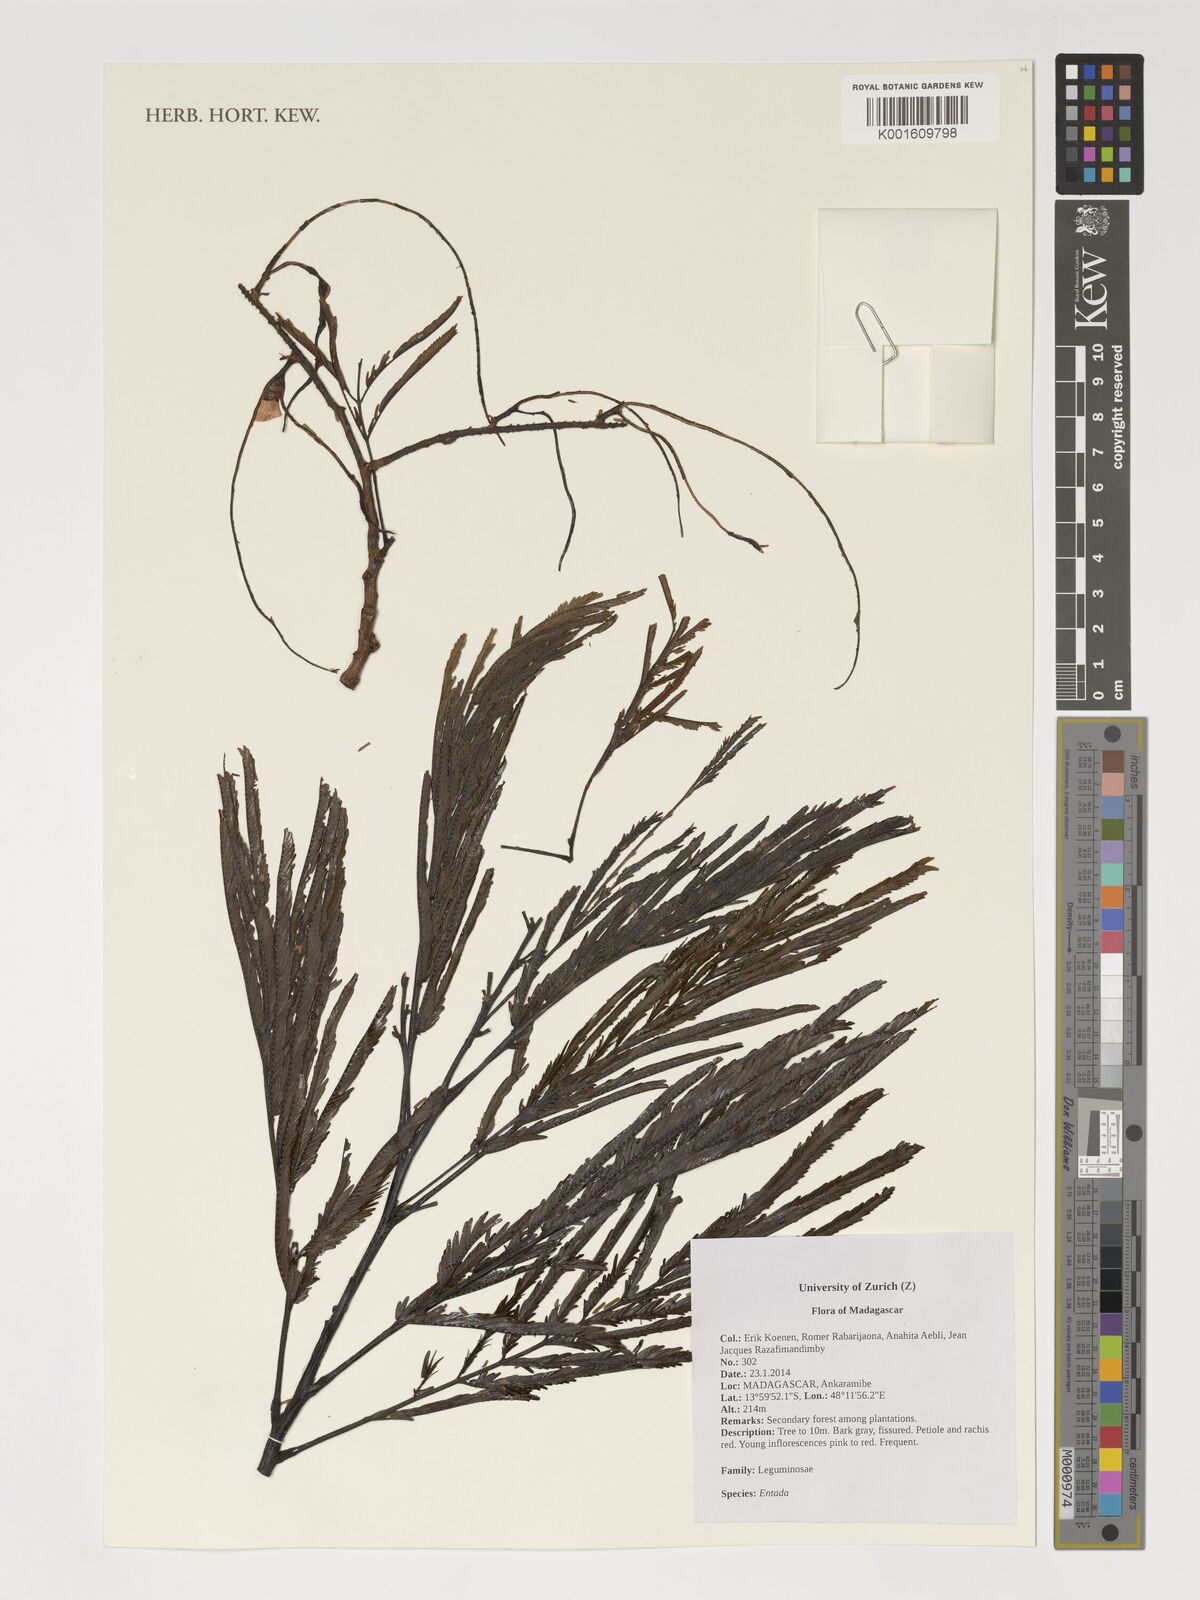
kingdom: Plantae
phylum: Tracheophyta
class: Magnoliopsida
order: Fabales
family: Fabaceae
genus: Entada
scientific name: Entada
